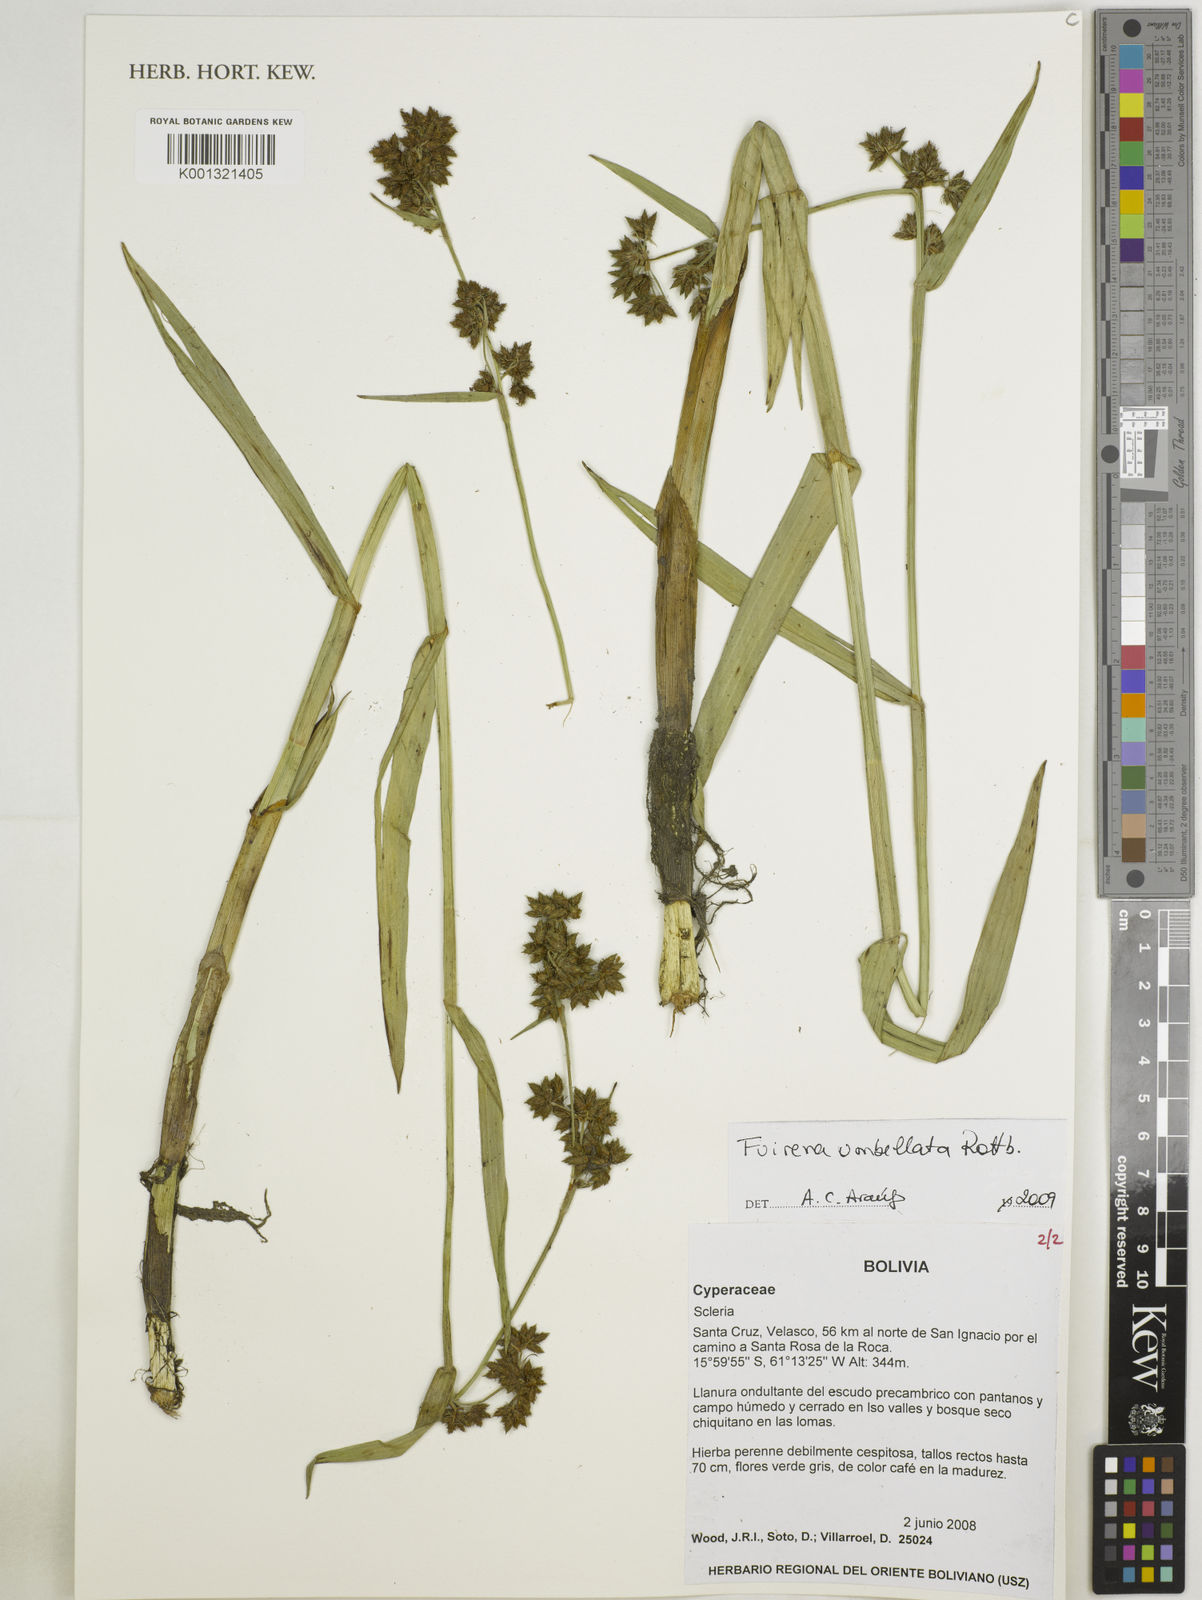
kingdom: Plantae
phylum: Tracheophyta
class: Liliopsida
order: Poales
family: Cyperaceae
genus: Fuirena
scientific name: Fuirena umbellata
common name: Yefen
